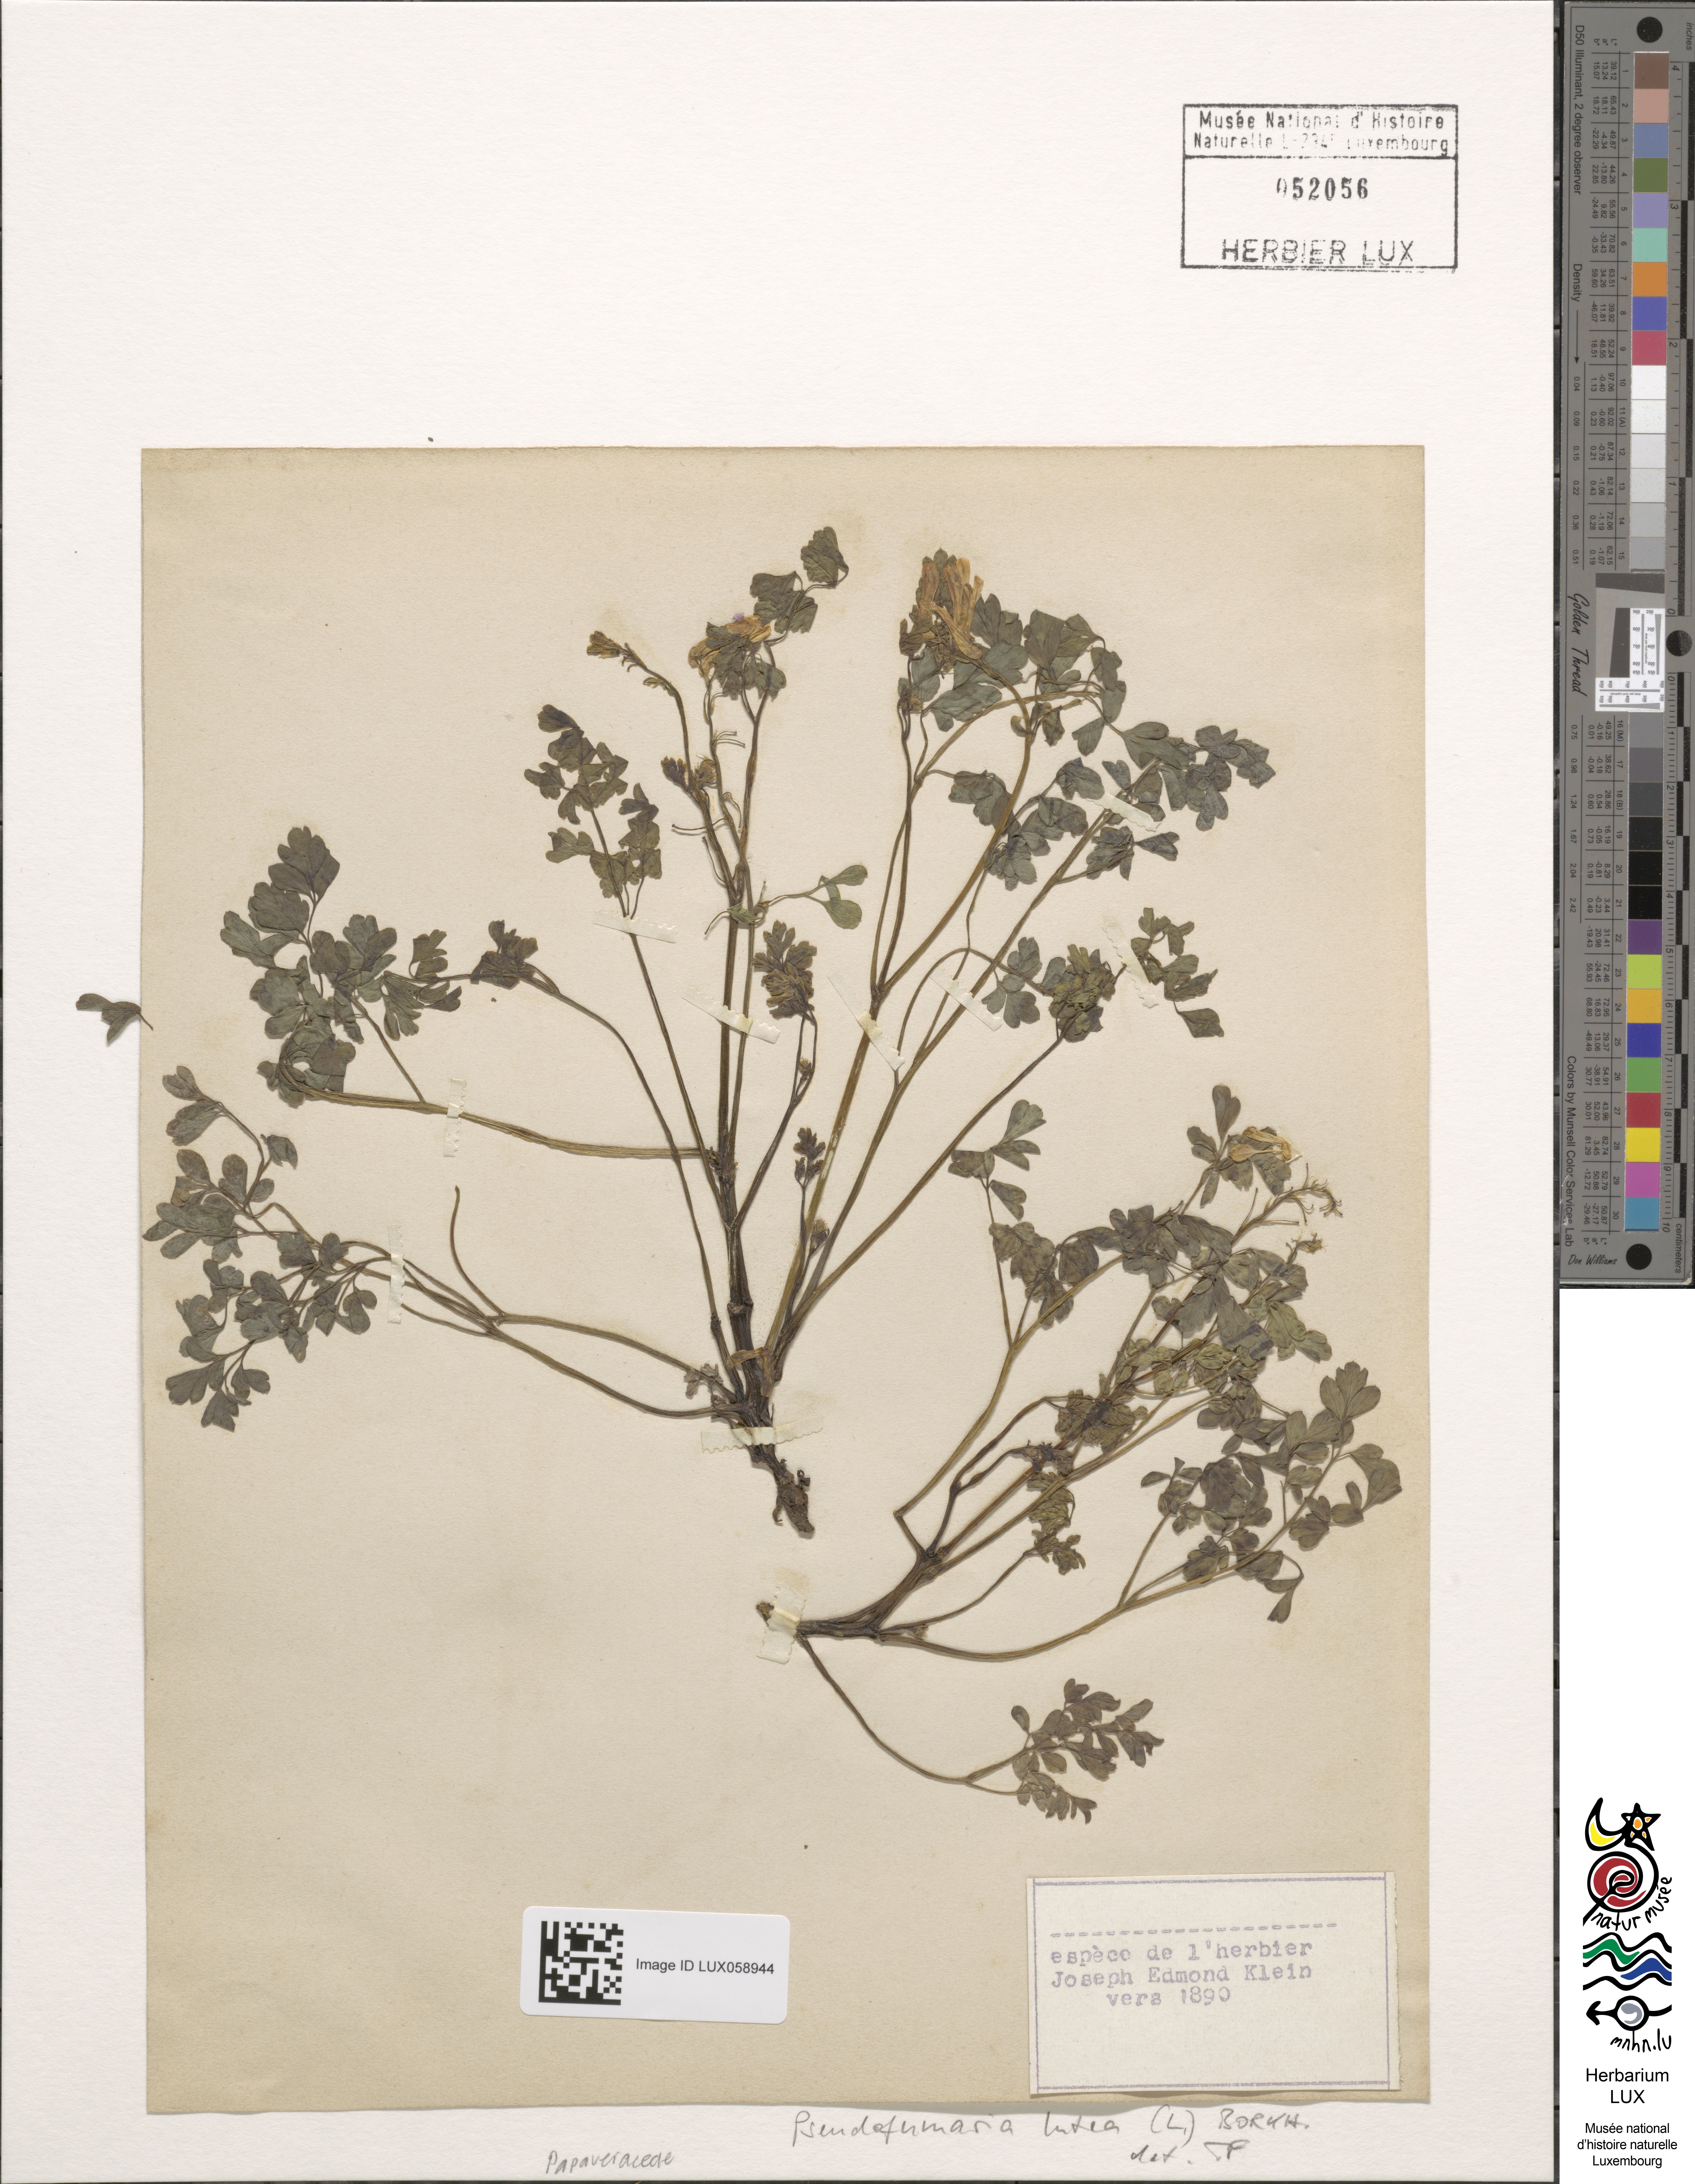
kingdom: Plantae
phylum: Tracheophyta
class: Magnoliopsida
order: Ranunculales
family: Papaveraceae
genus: Pseudofumaria
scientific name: Pseudofumaria lutea
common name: Yellow corydalis
